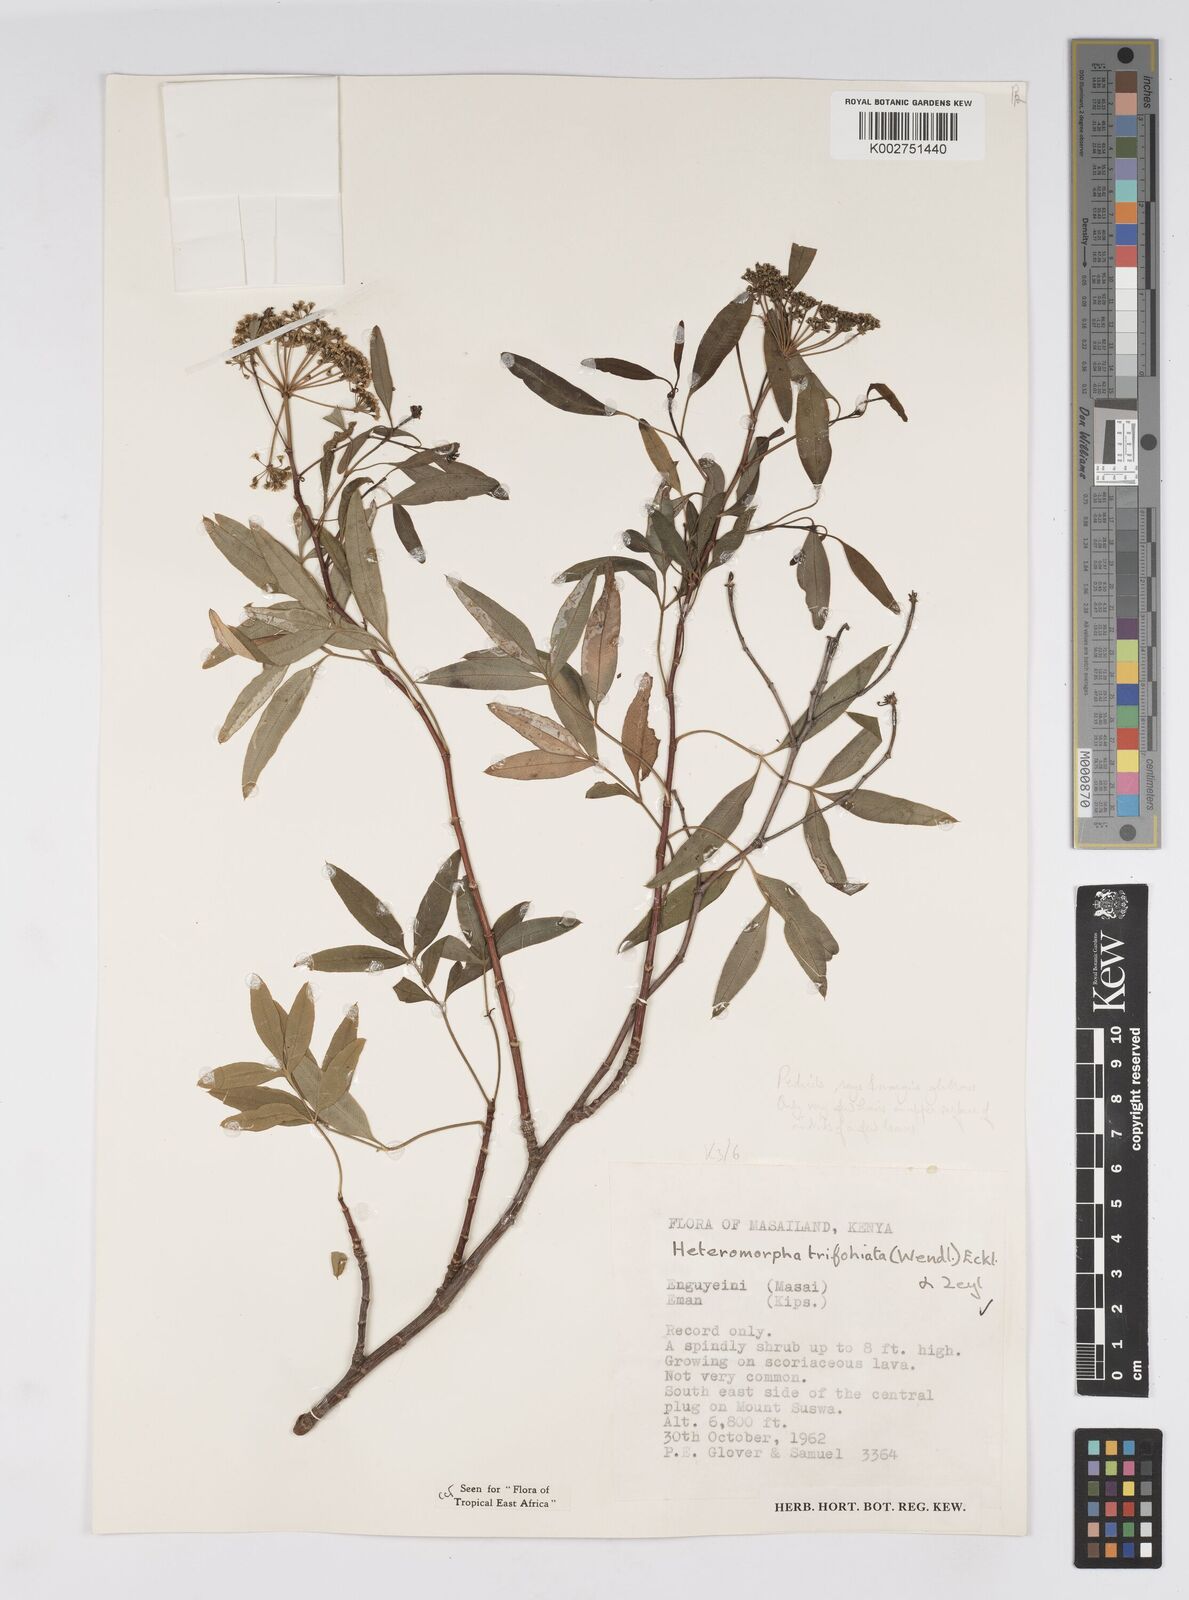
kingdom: Plantae
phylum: Tracheophyta
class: Magnoliopsida
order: Apiales
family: Apiaceae
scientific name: Apiaceae
